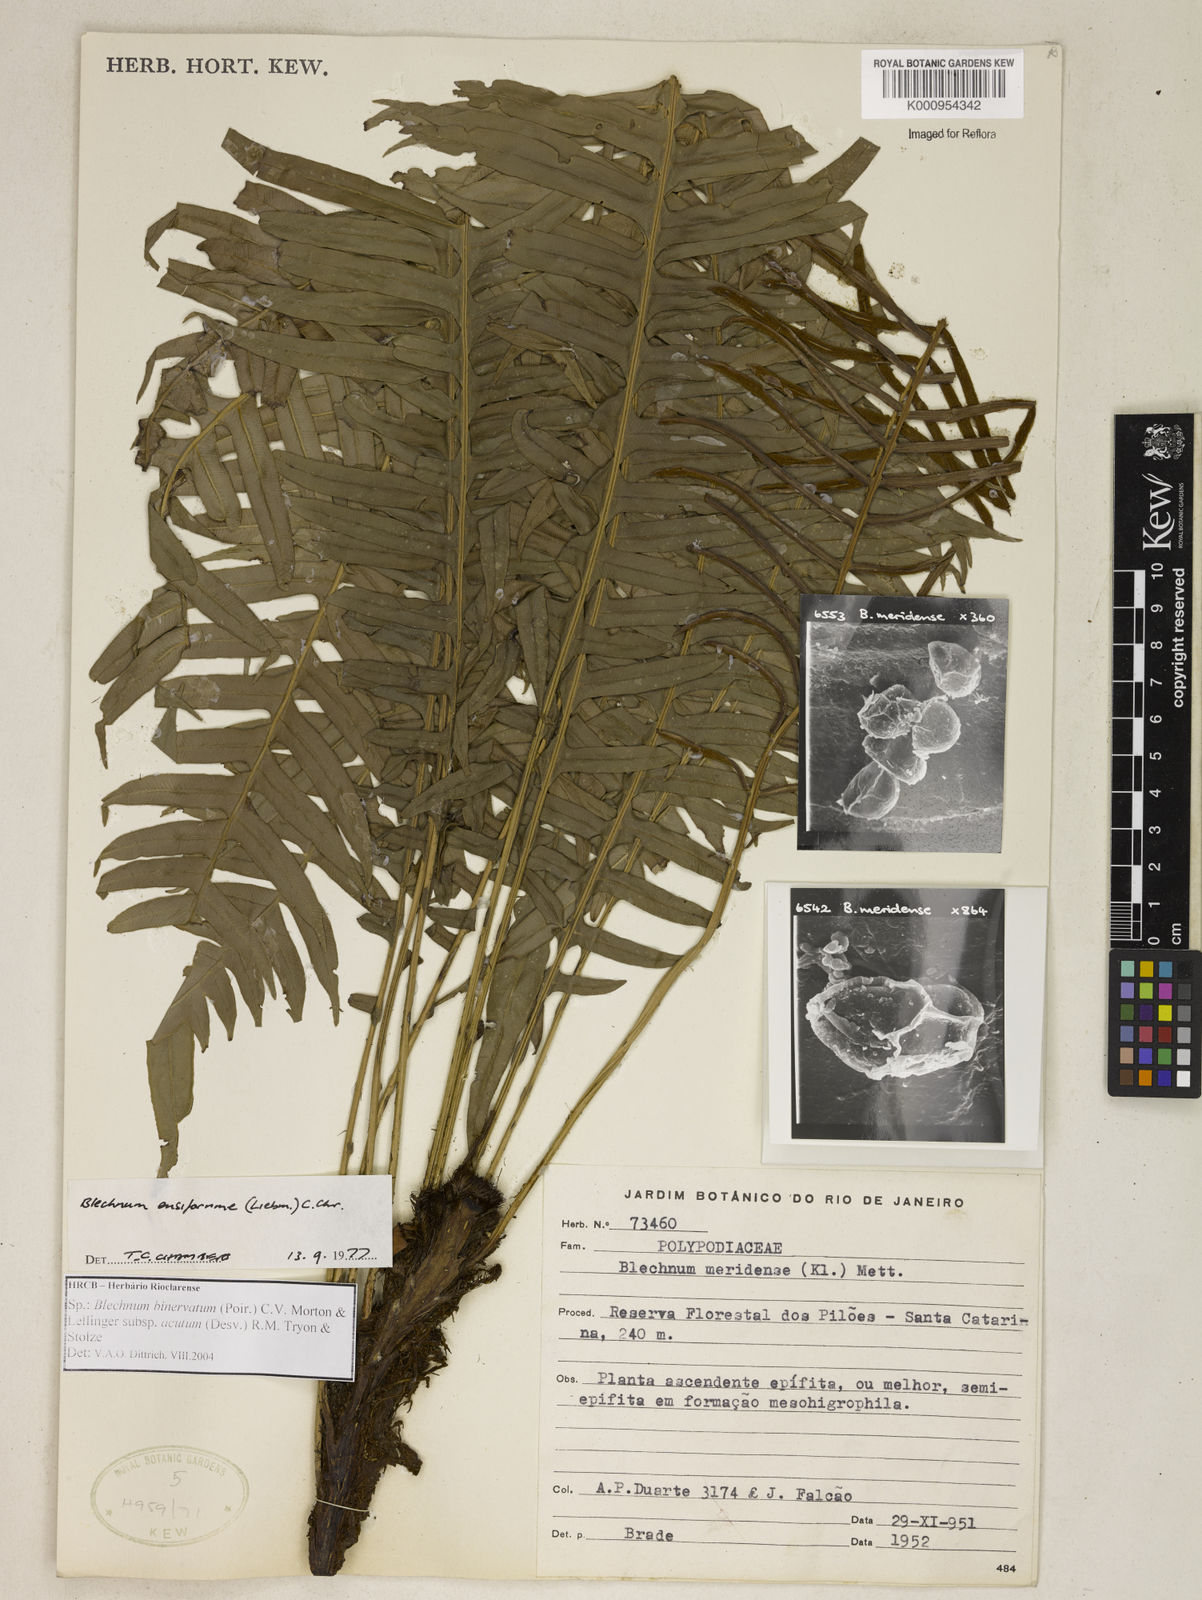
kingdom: Plantae
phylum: Tracheophyta
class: Polypodiopsida
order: Polypodiales
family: Blechnaceae
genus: Lomaridium
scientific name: Lomaridium ensiforme
